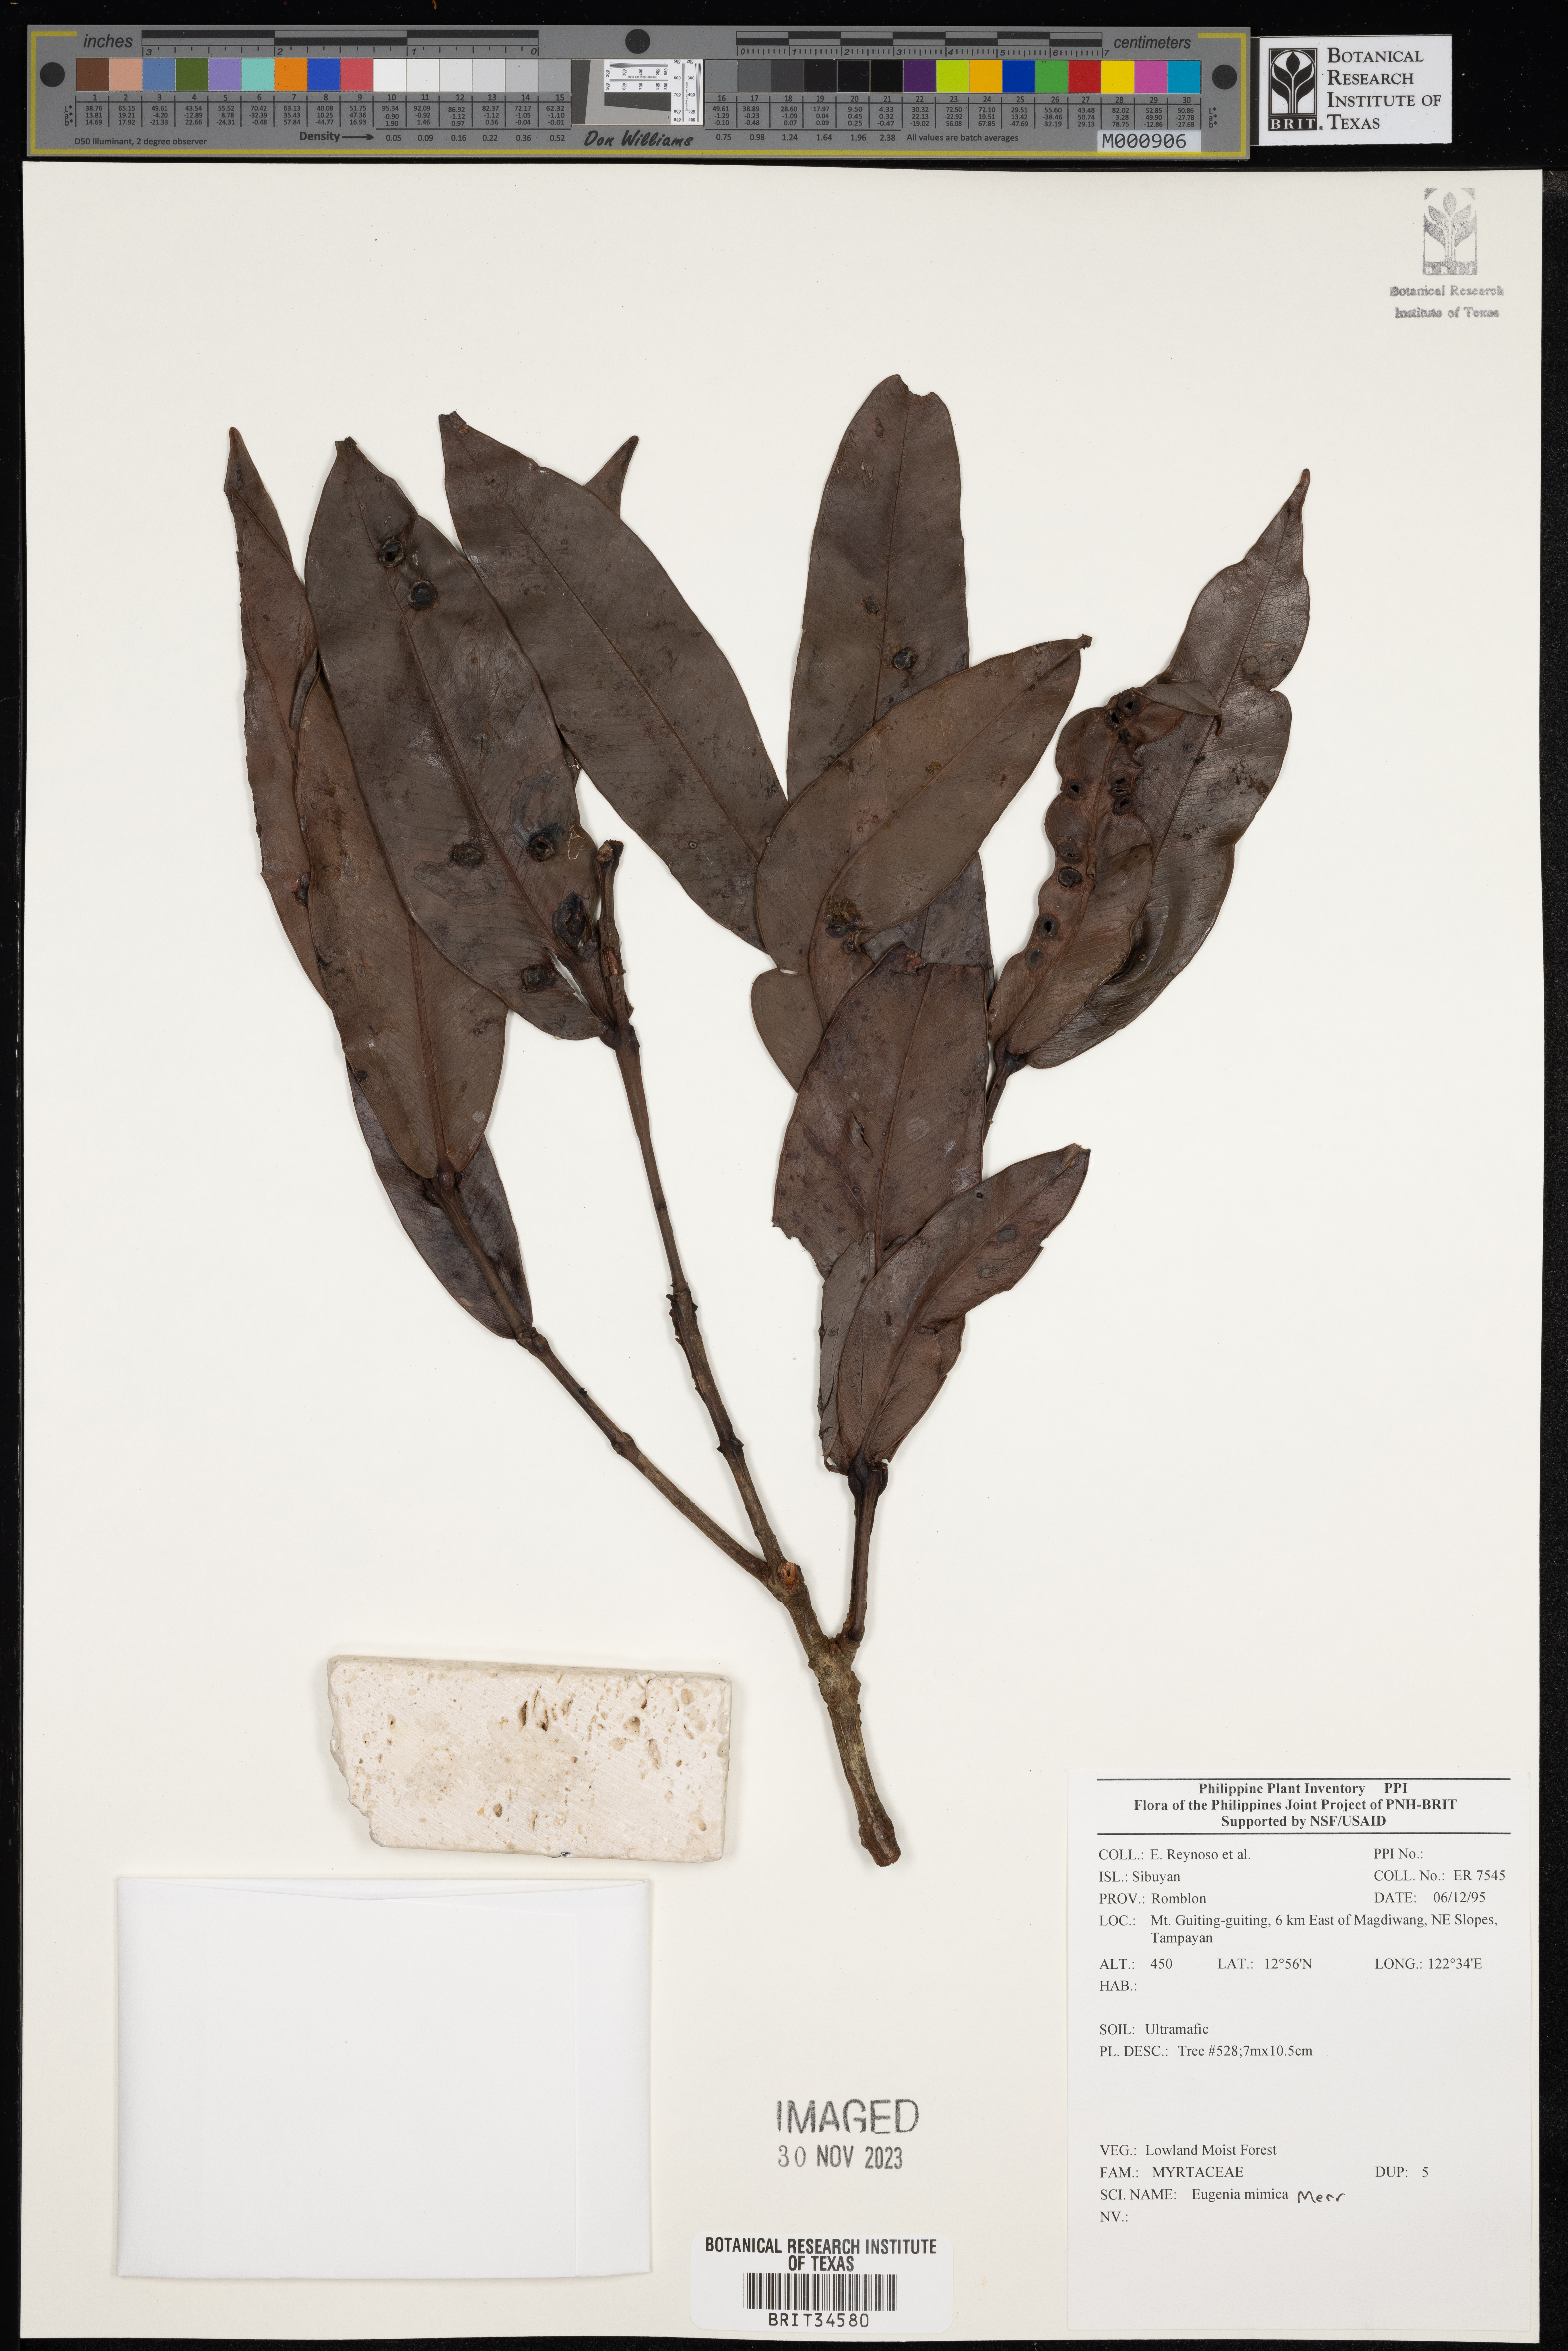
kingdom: Plantae
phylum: Tracheophyta
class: Magnoliopsida
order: Myrtales
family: Myrtaceae
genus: Eugenia
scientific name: Eugenia
